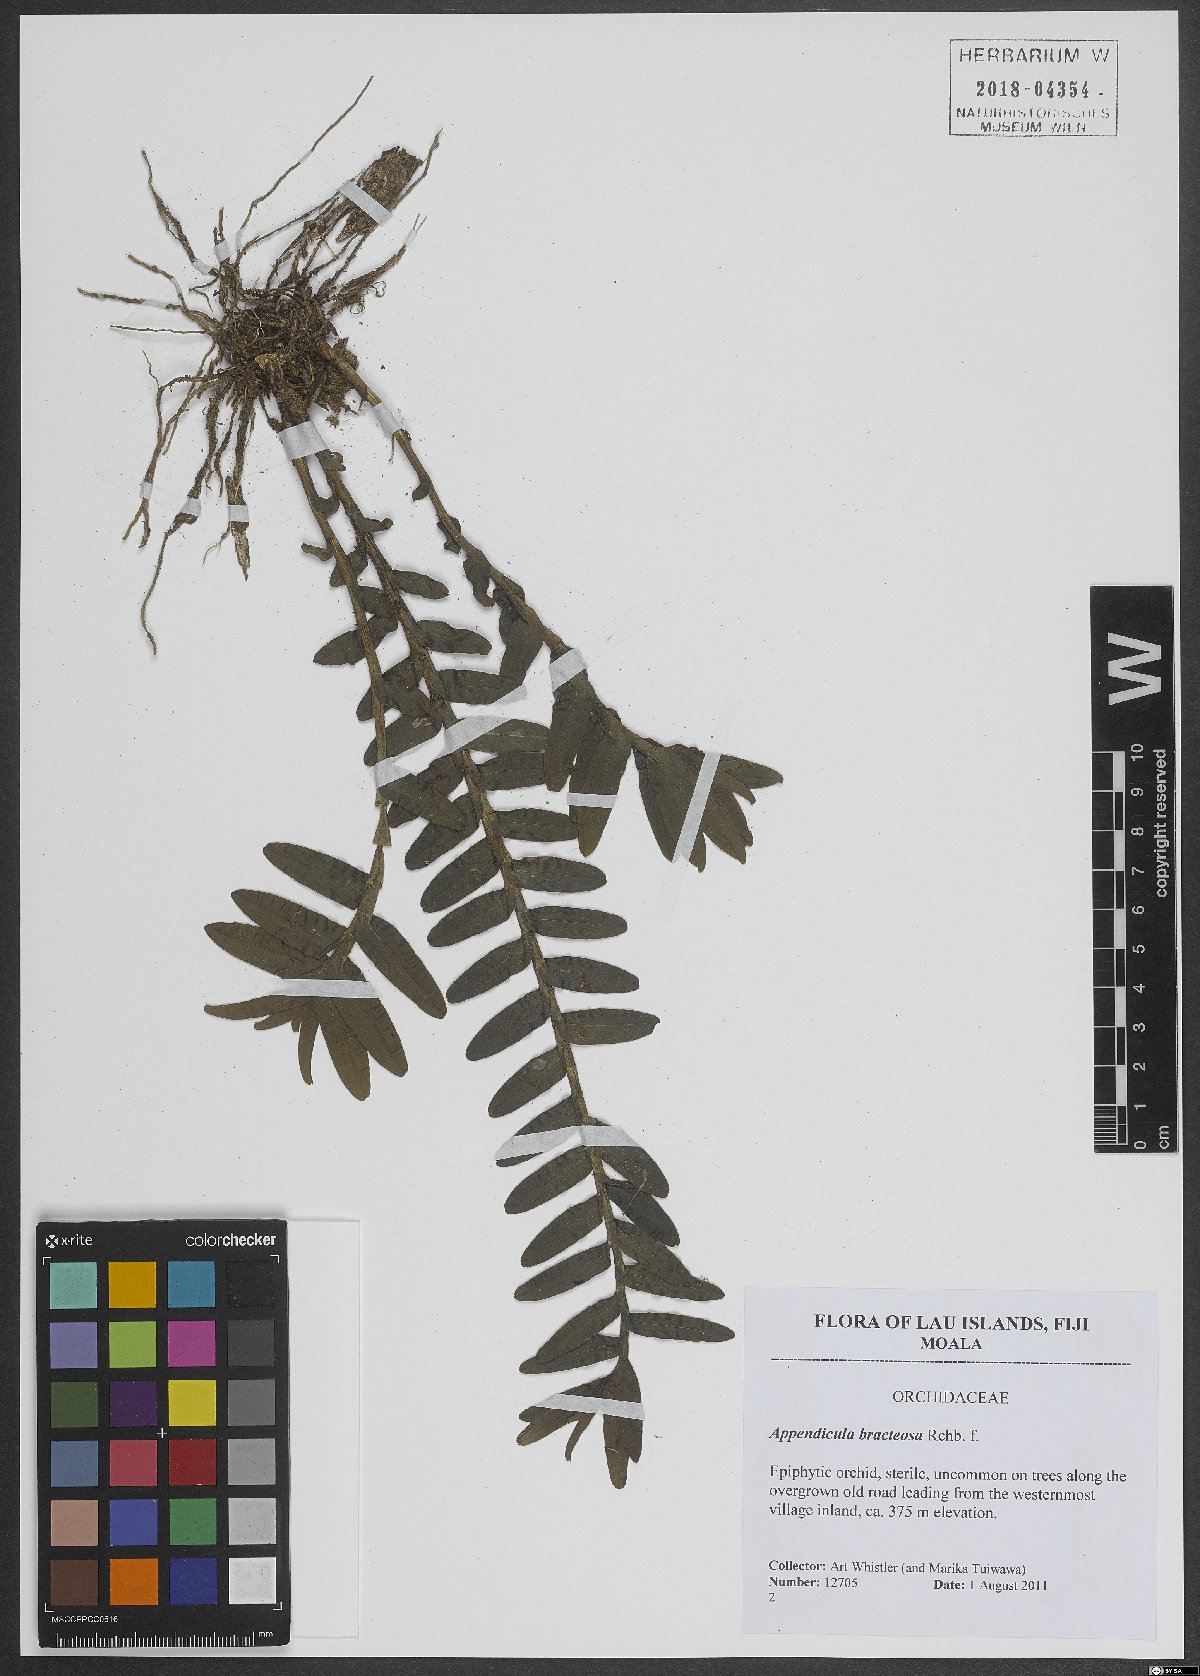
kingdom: Plantae
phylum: Tracheophyta
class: Liliopsida
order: Asparagales
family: Orchidaceae
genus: Appendicula
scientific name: Appendicula bracteosa
